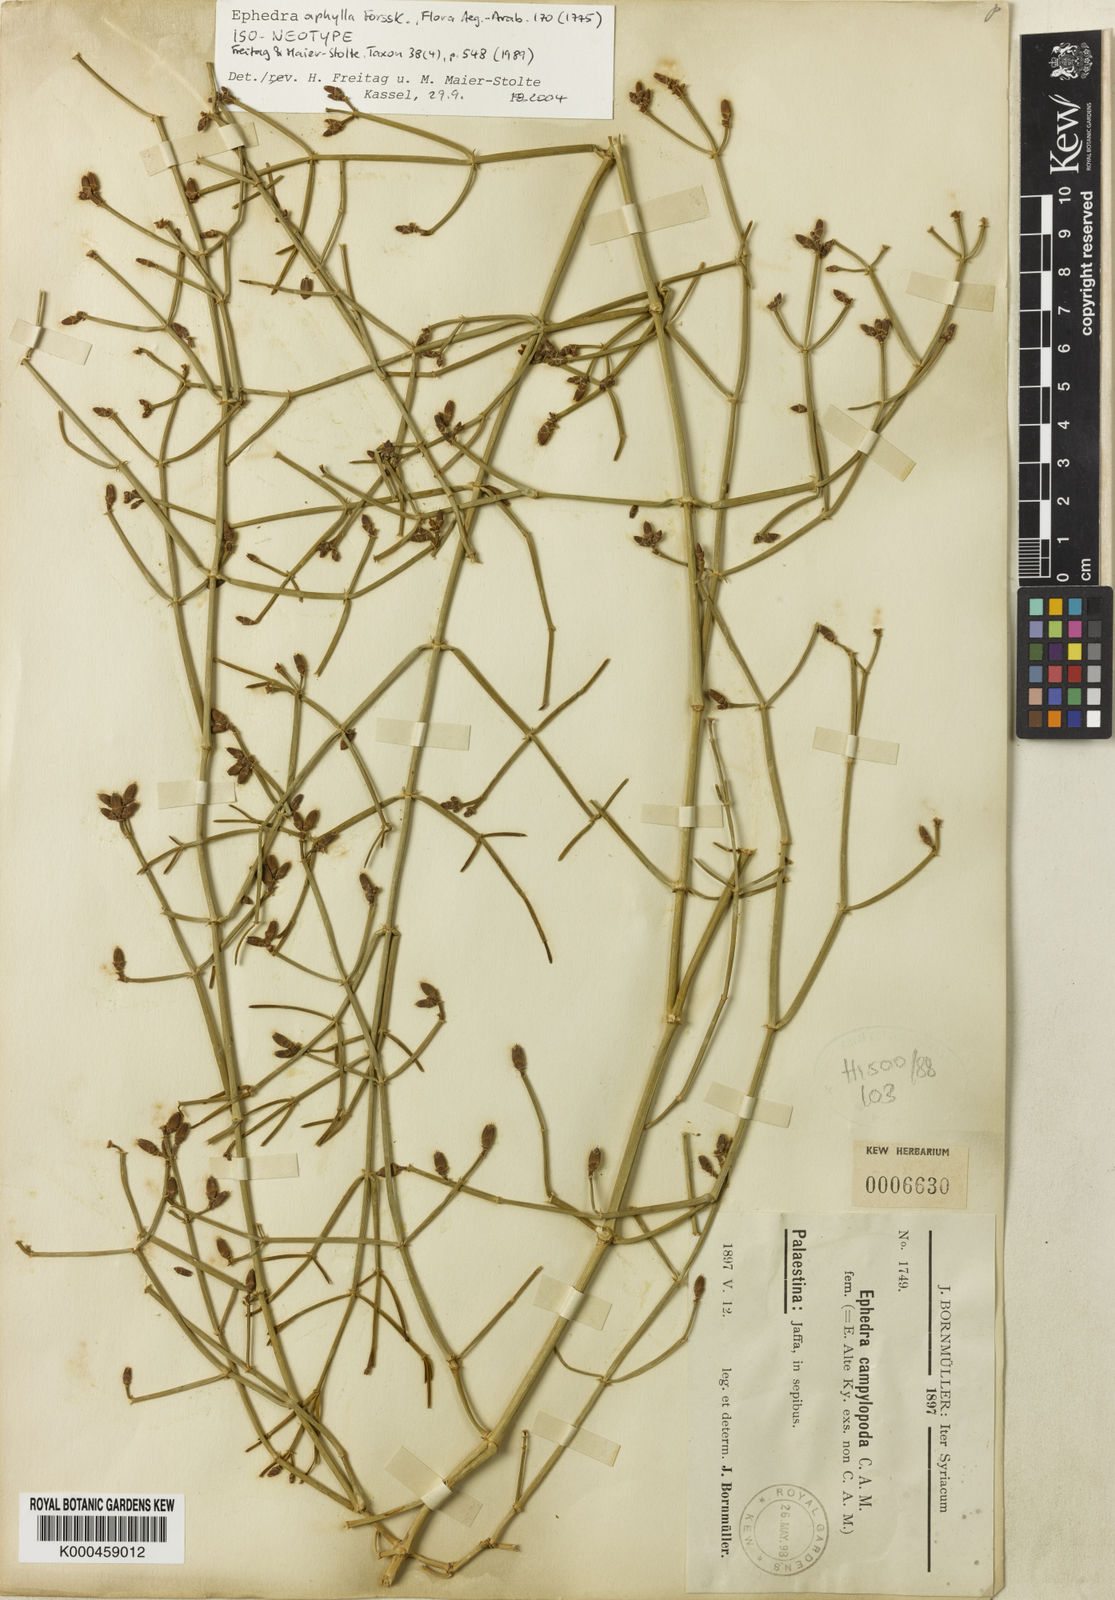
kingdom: Plantae
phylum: Tracheophyta
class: Gnetopsida
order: Ephedrales
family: Ephedraceae
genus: Ephedra
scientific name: Ephedra aphylla
